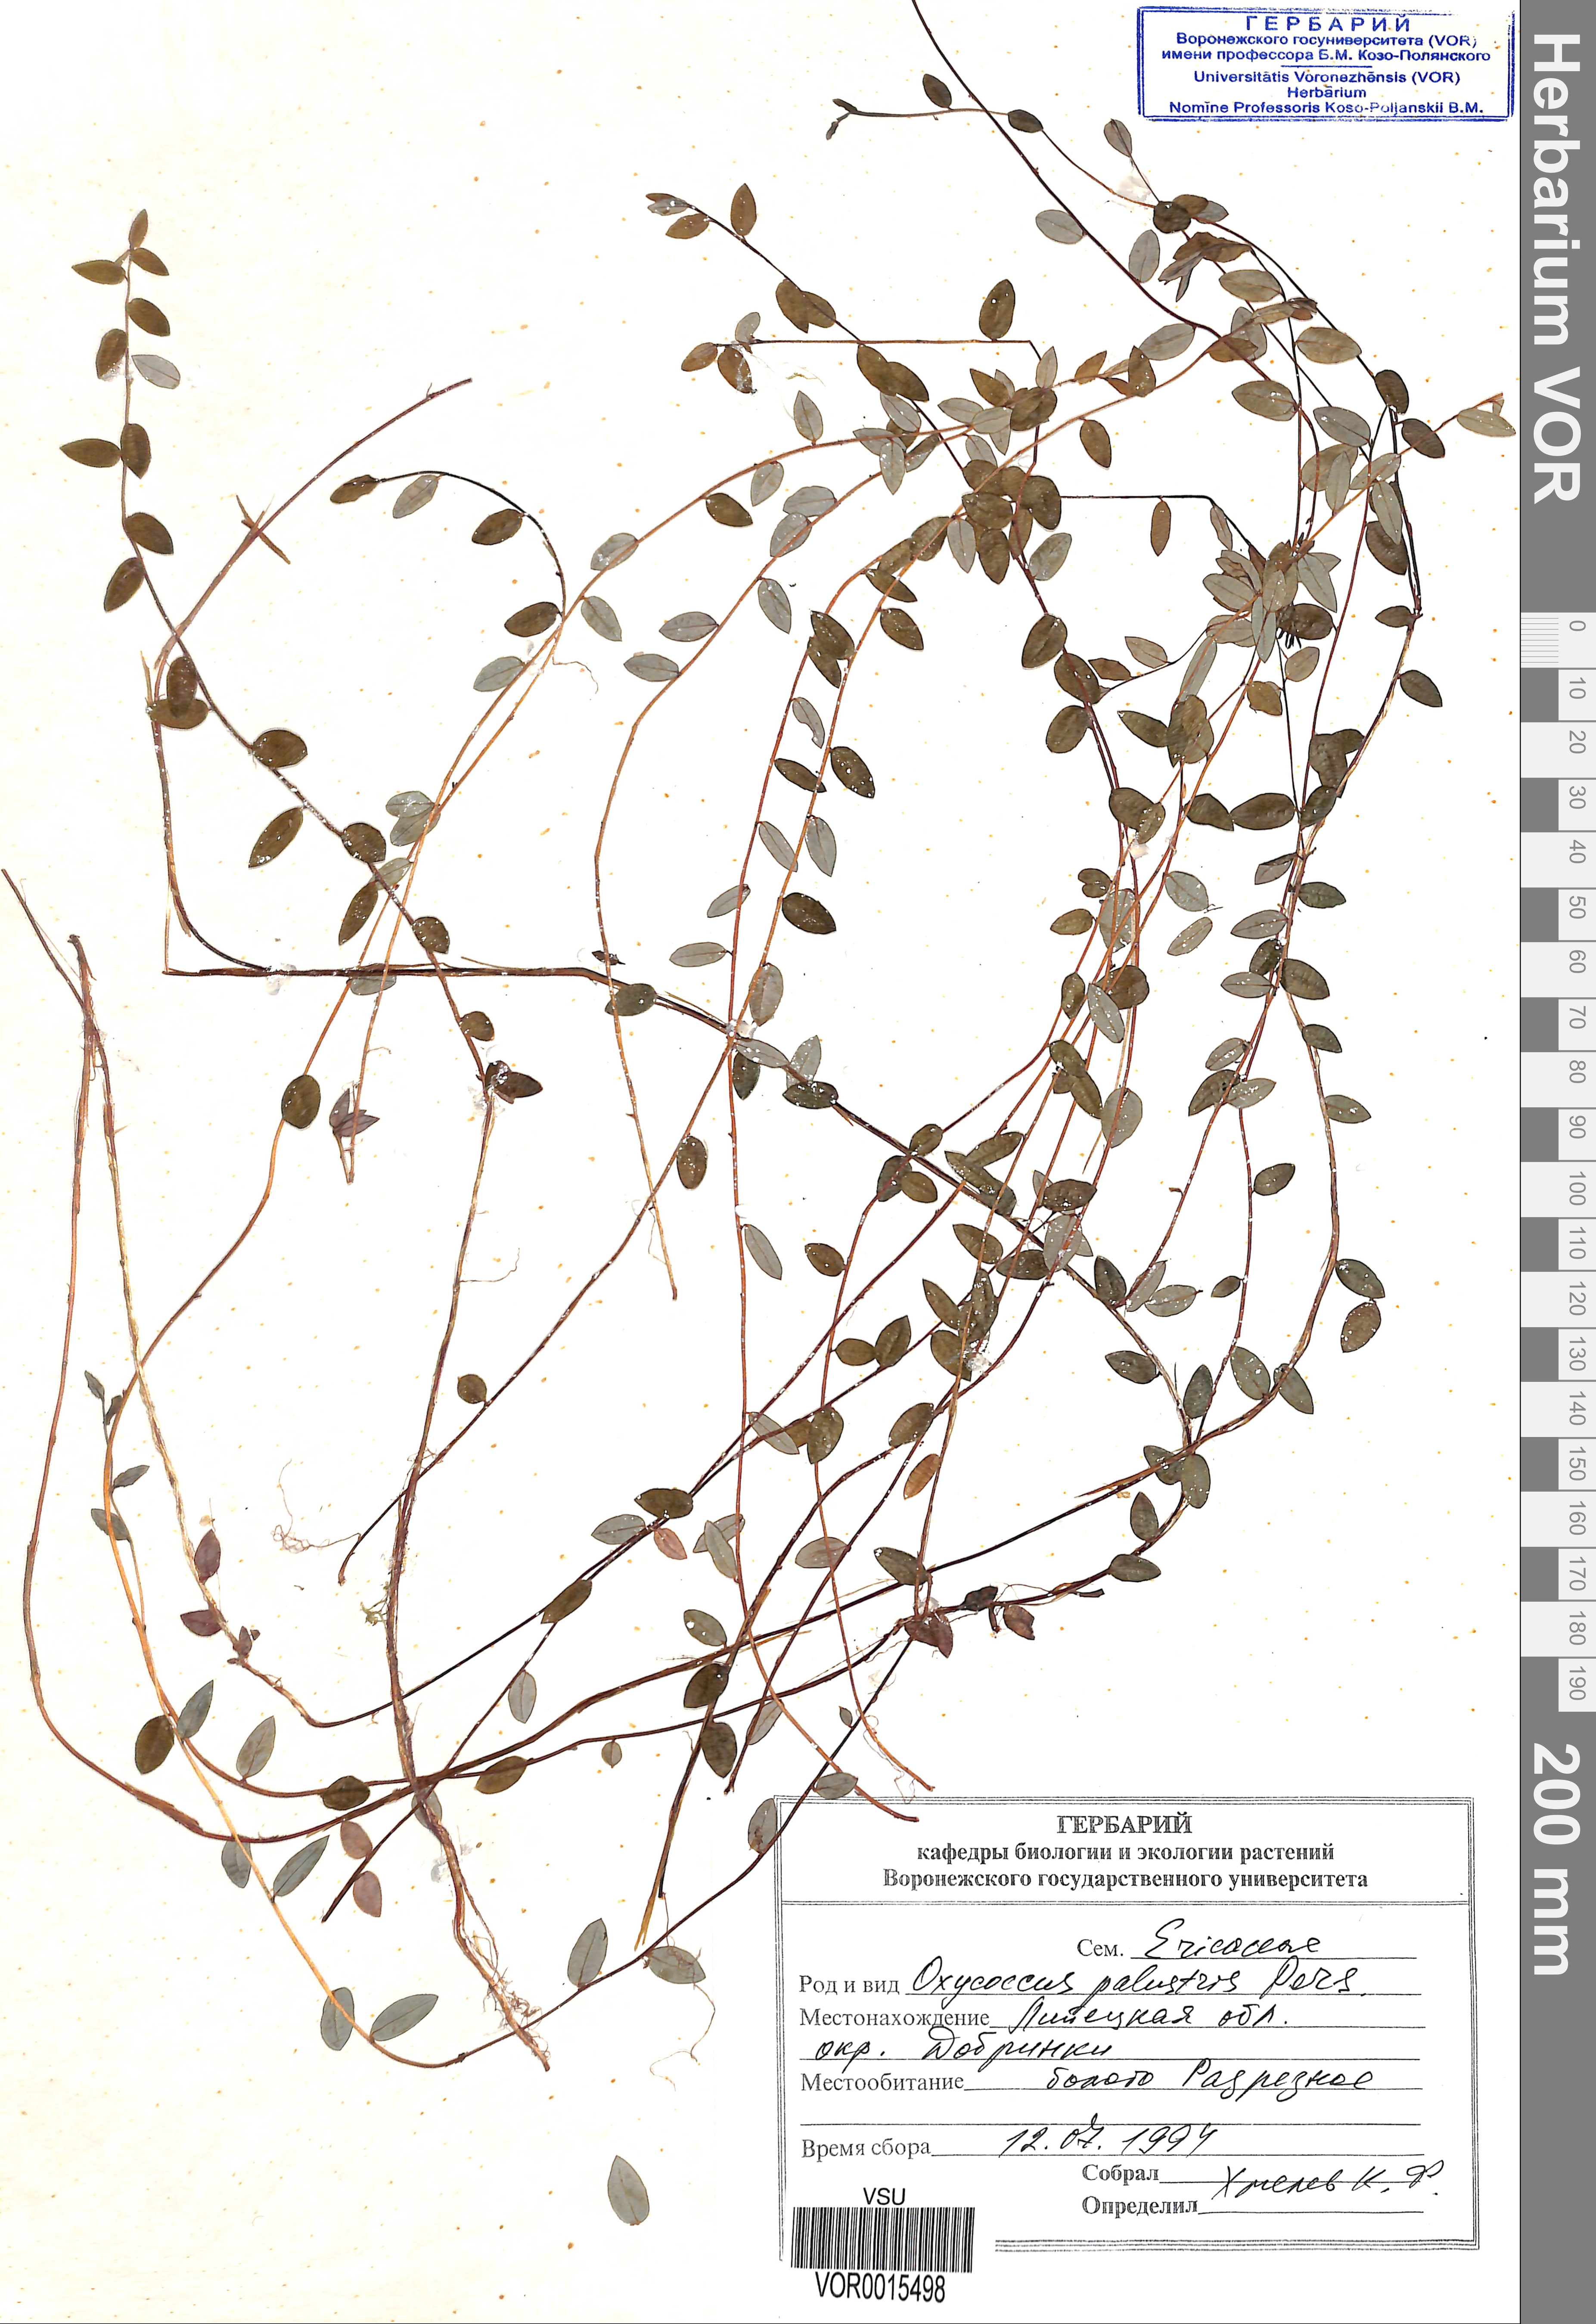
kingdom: Plantae
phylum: Tracheophyta
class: Magnoliopsida
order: Ericales
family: Ericaceae
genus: Vaccinium
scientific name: Vaccinium oxycoccos
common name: Cranberry
